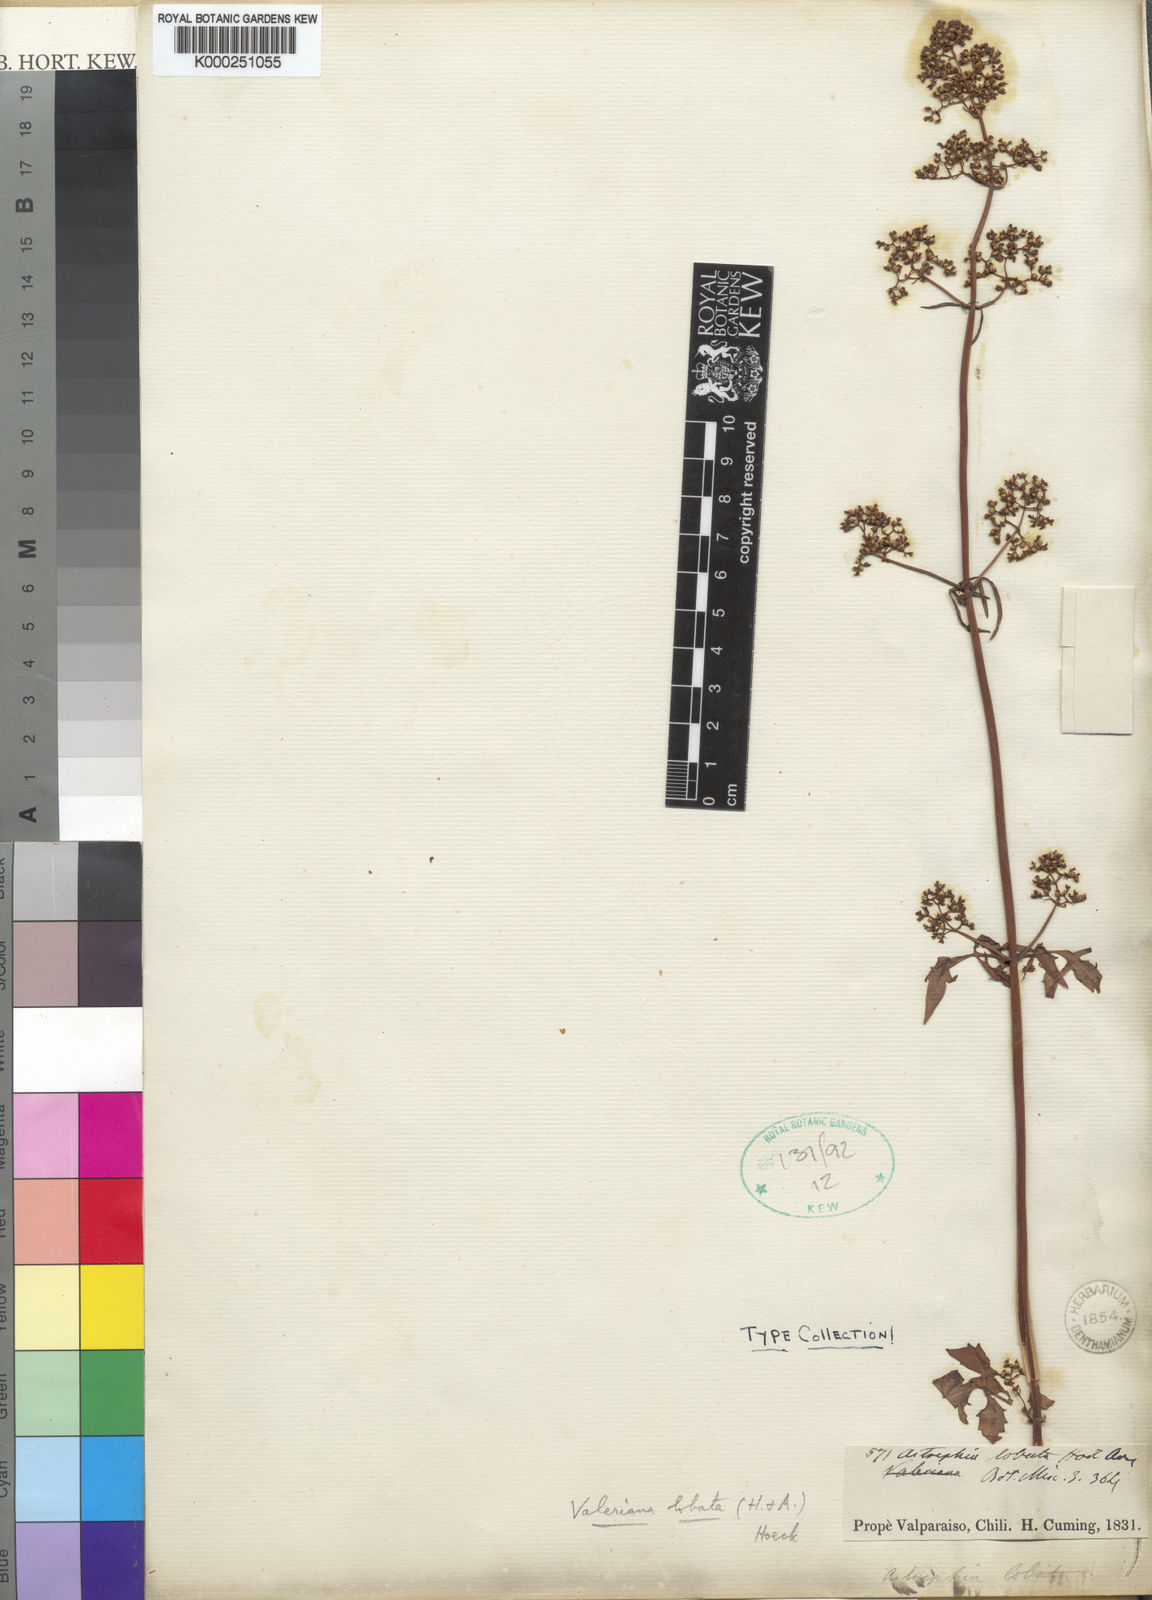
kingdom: Plantae
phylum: Tracheophyta
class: Magnoliopsida
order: Dipsacales
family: Caprifoliaceae
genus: Valeriana
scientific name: Valeriana crispa
